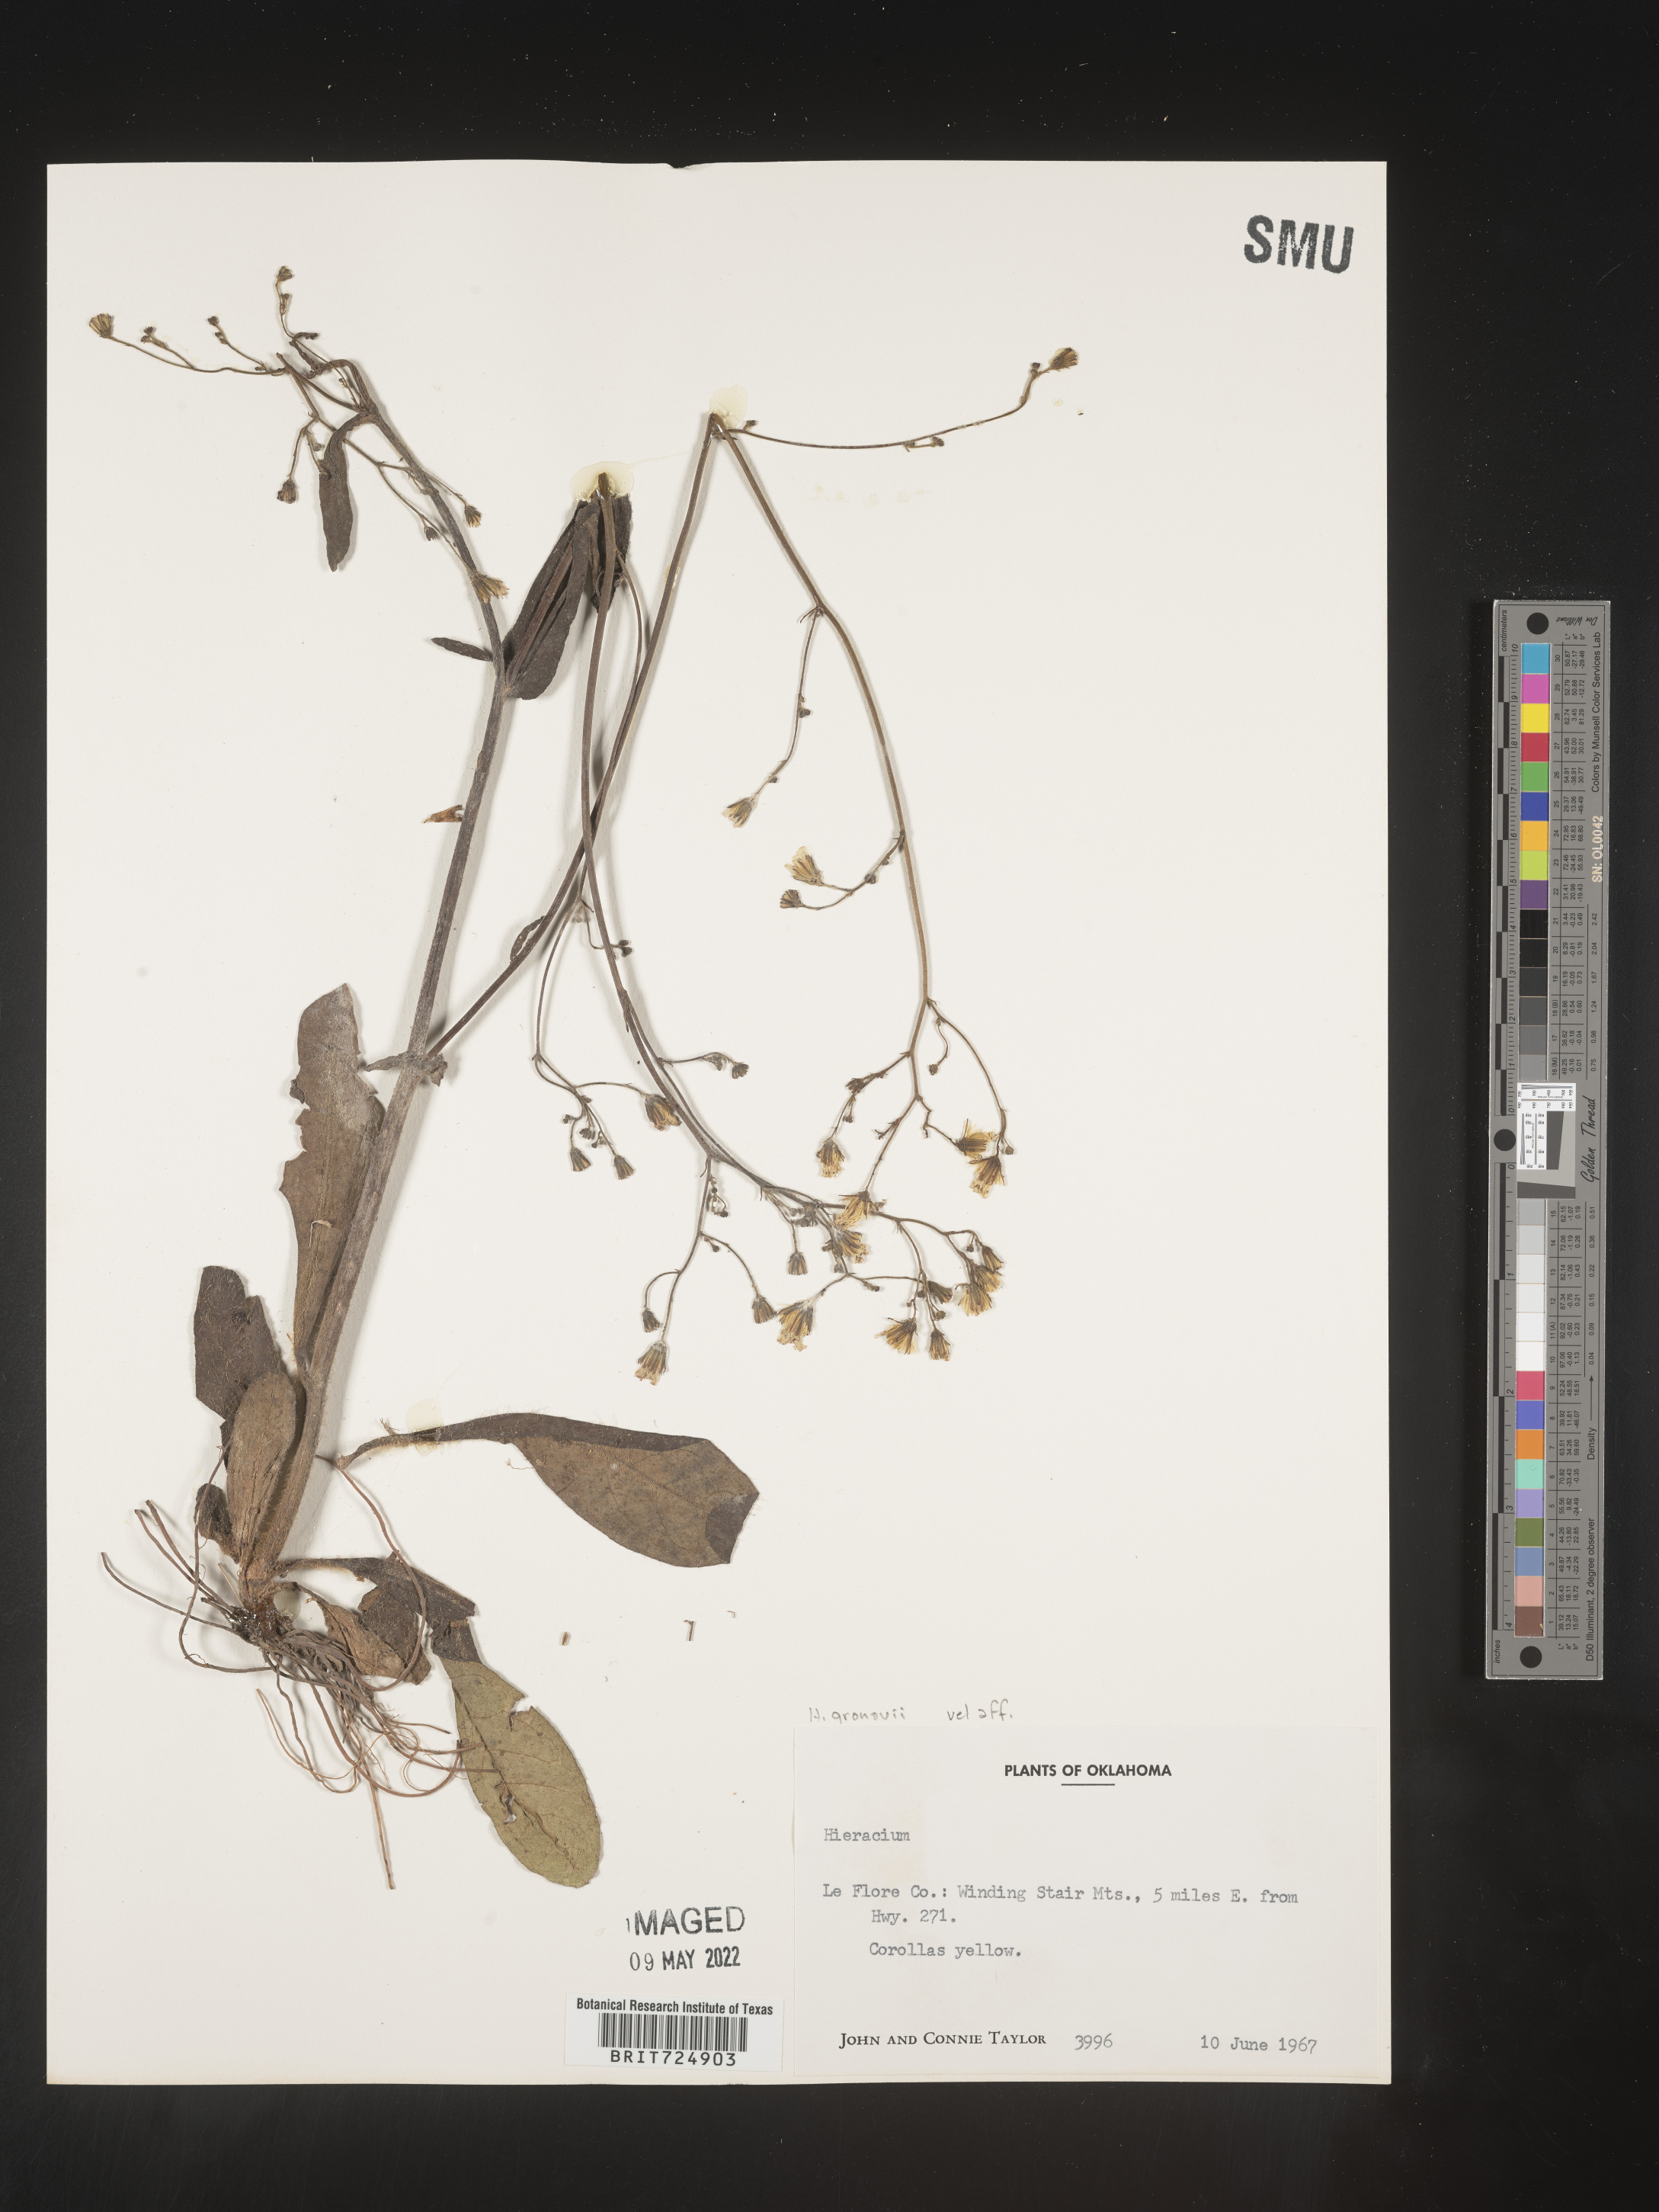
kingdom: Plantae
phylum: Tracheophyta
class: Magnoliopsida
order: Asterales
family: Asteraceae
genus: Hieracium
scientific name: Hieracium gronovii
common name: Beaked hawkweed
